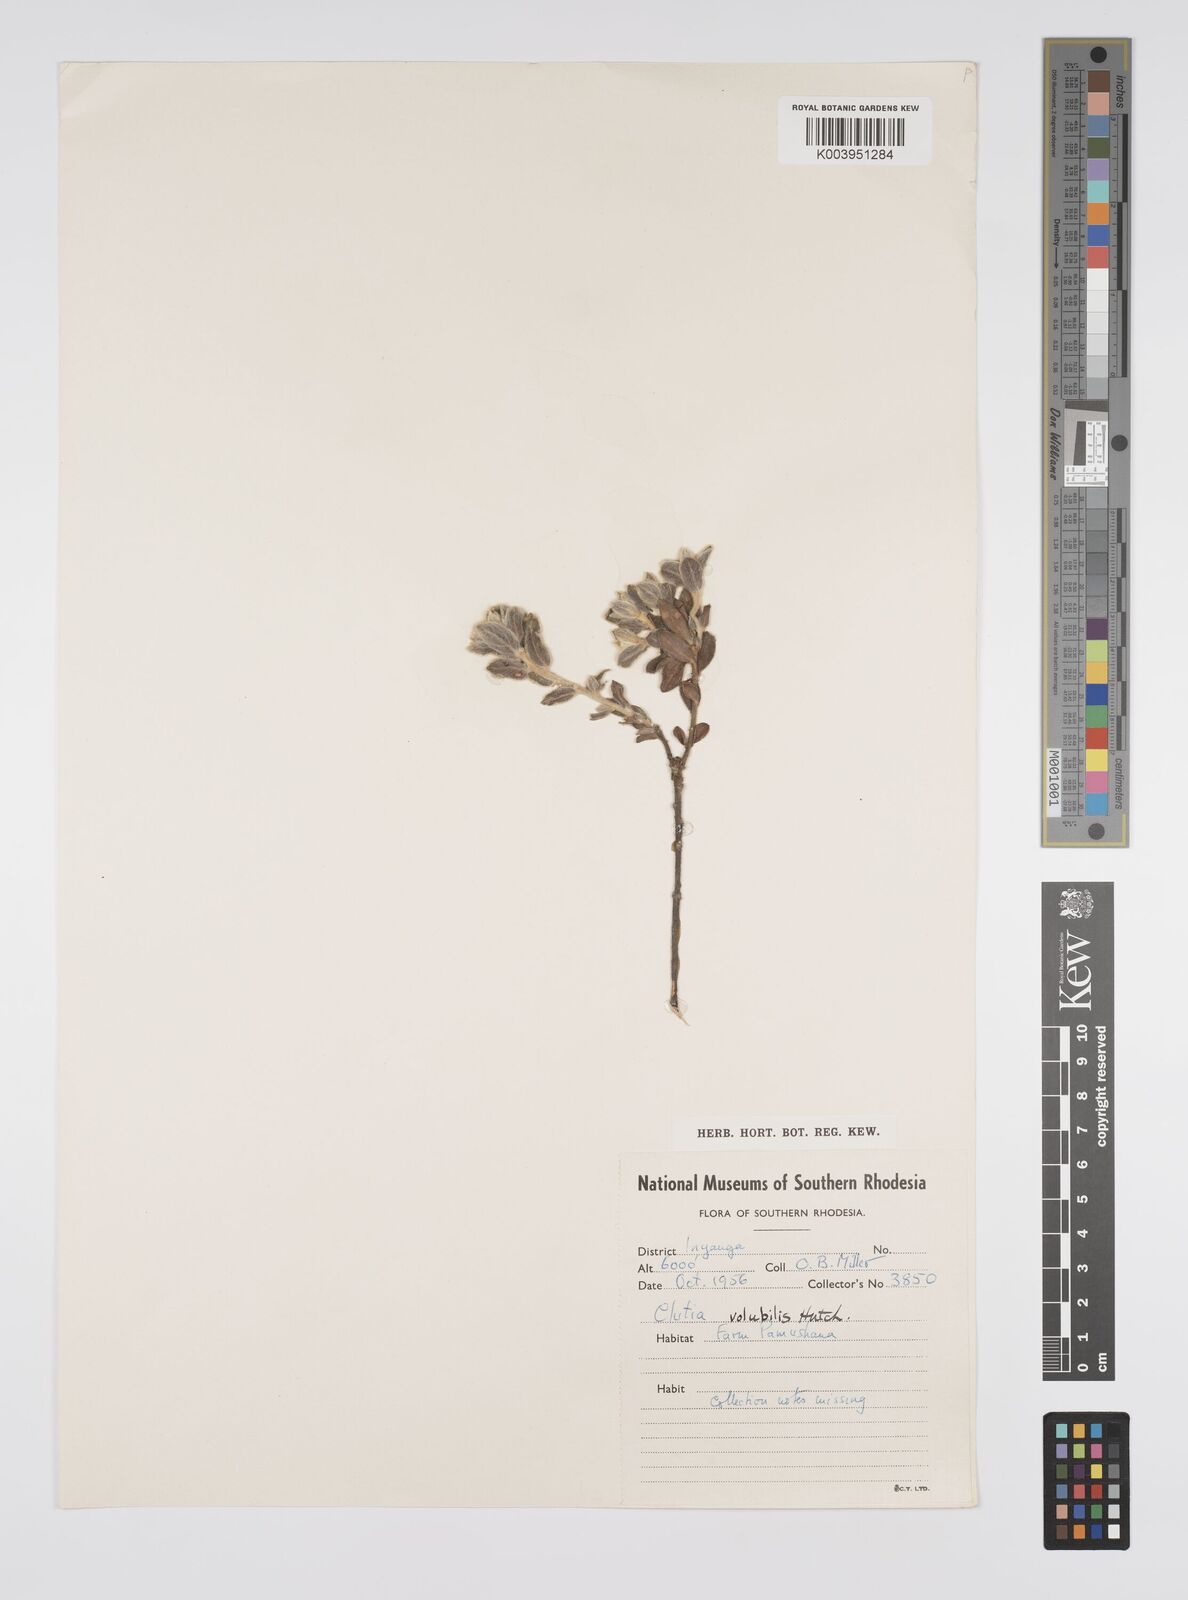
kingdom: Plantae
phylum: Tracheophyta
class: Magnoliopsida
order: Malpighiales
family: Peraceae
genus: Clutia
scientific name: Clutia
